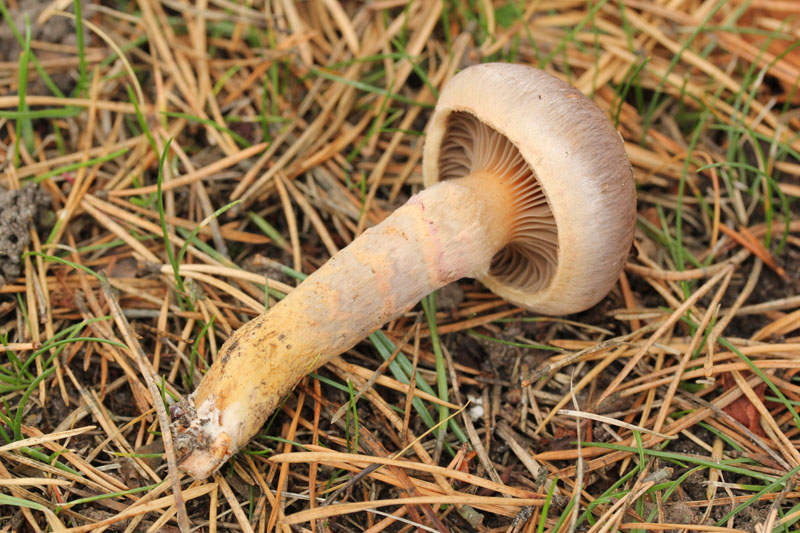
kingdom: Fungi
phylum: Basidiomycota
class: Agaricomycetes
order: Boletales
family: Gomphidiaceae
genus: Chroogomphus
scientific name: Chroogomphus rutilus
